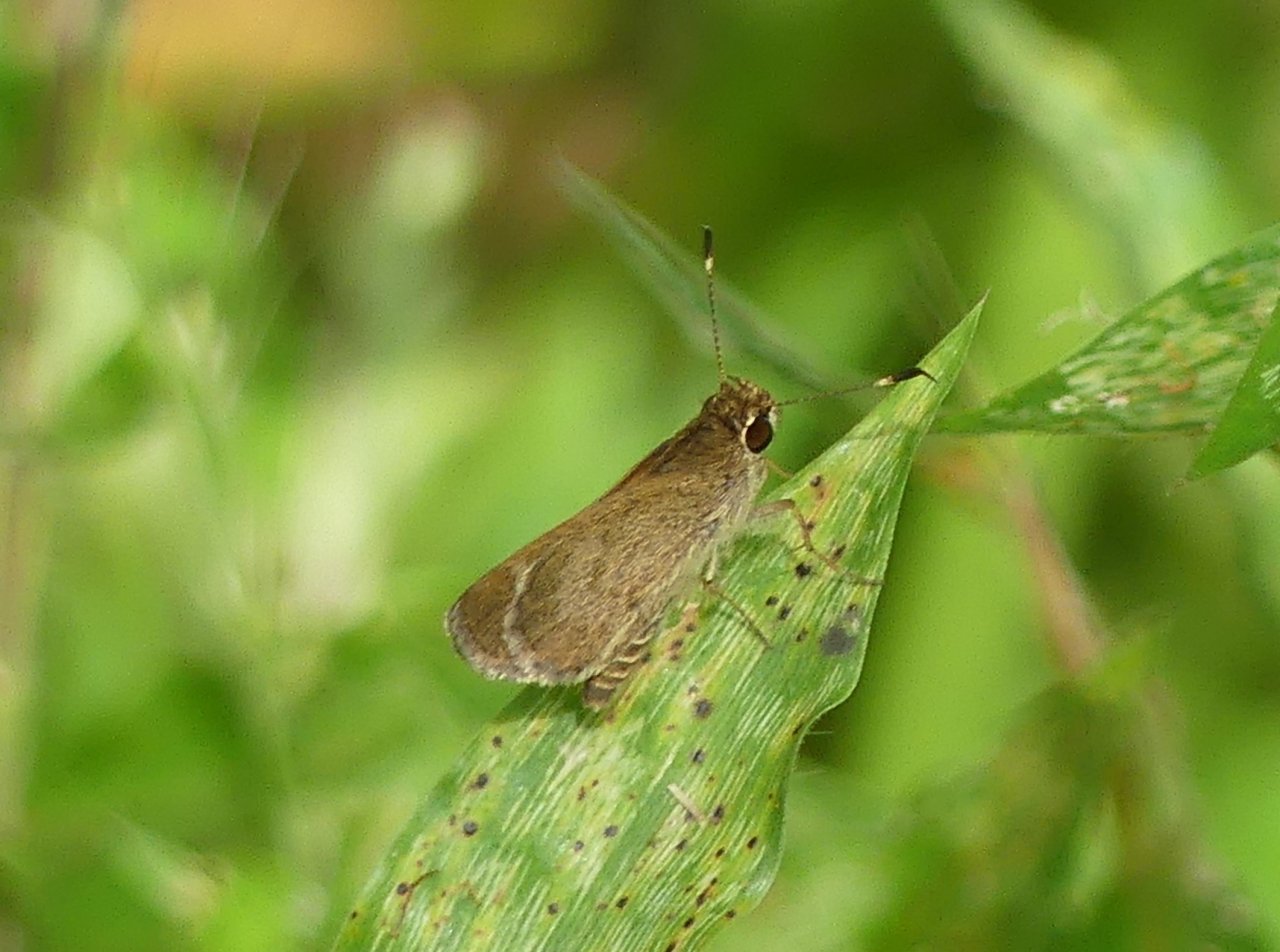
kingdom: Animalia
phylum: Arthropoda
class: Insecta
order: Lepidoptera
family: Hesperiidae
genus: Callimormus
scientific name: Callimormus saturnus
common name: Saturnus Skipper
